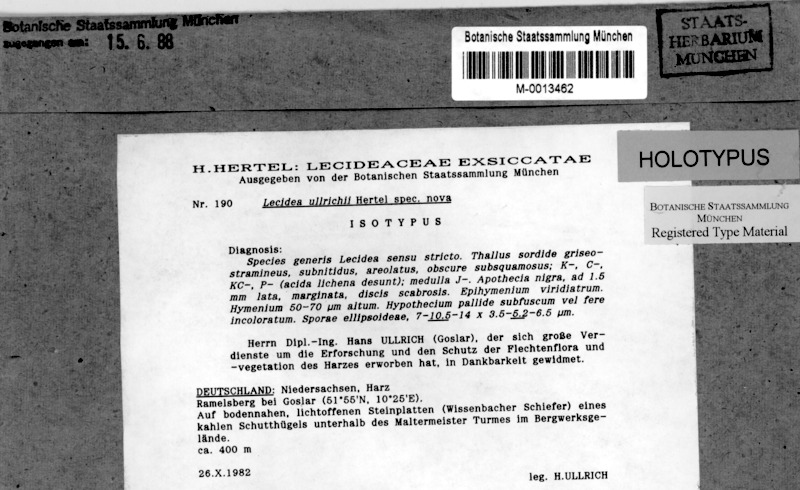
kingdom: Fungi
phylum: Ascomycota
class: Lecanoromycetes
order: Lecideales
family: Lecideaceae
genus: Lecidea
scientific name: Lecidea ullrichii
